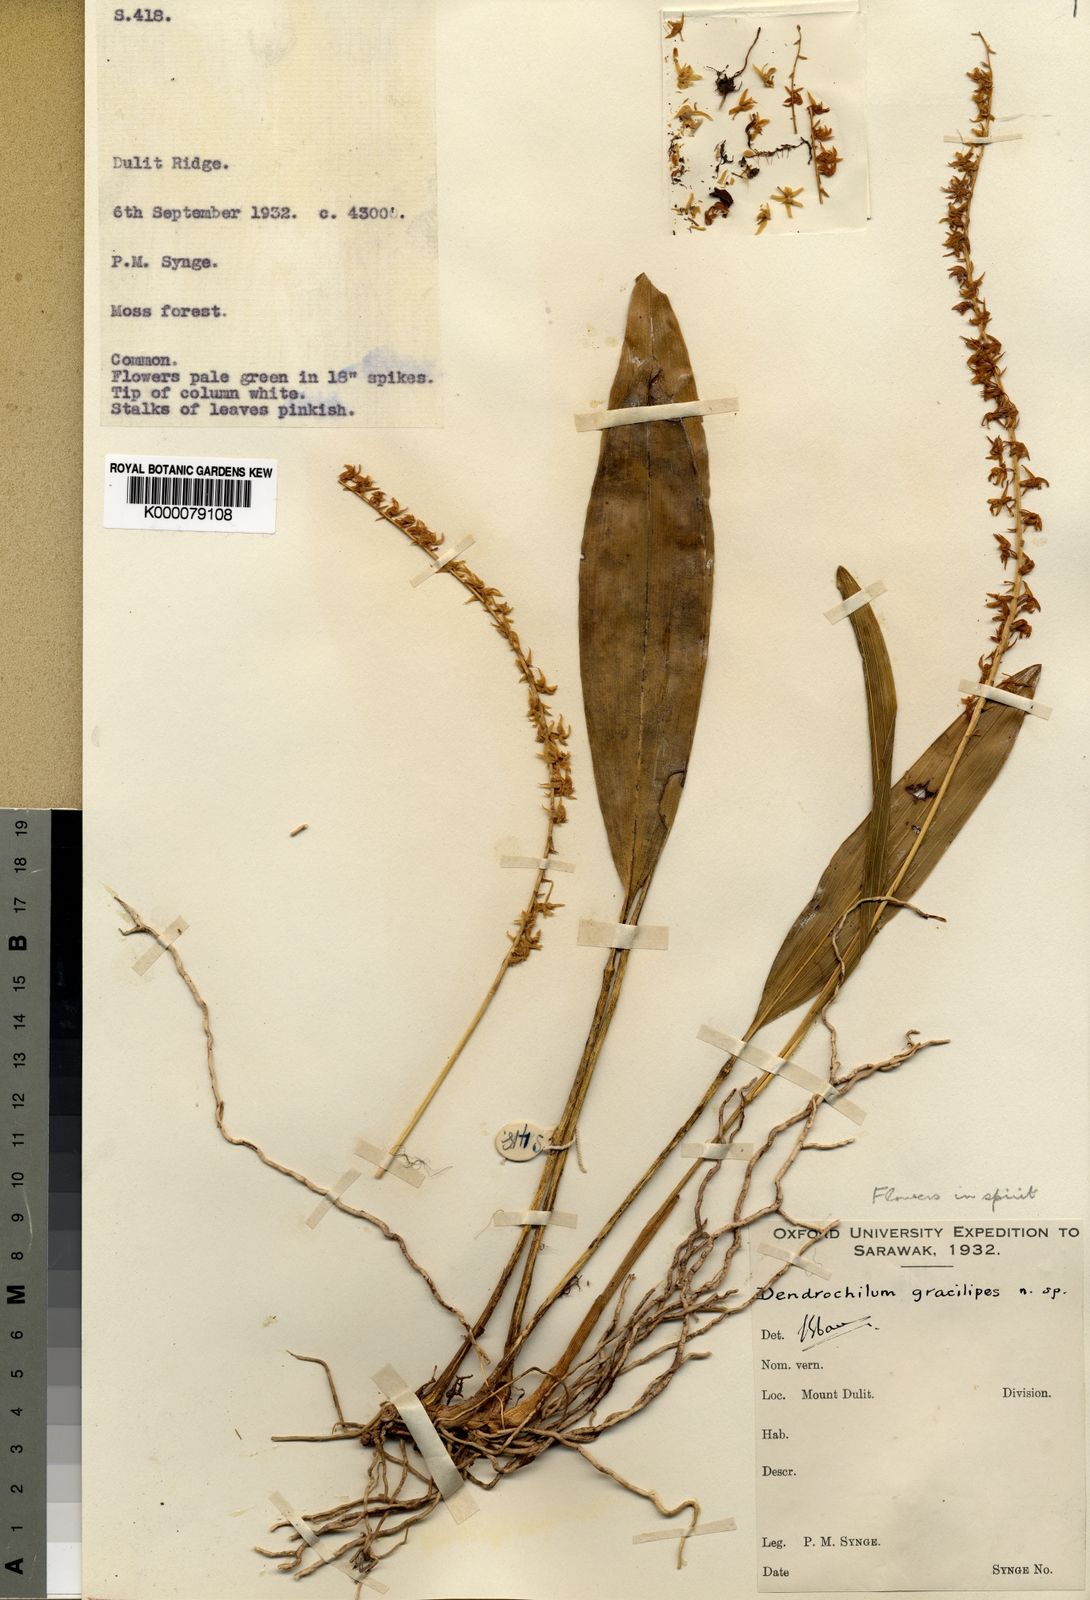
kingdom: Plantae
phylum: Tracheophyta
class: Liliopsida
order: Asparagales
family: Orchidaceae
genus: Coelogyne
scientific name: Coelogyne gracilipes
